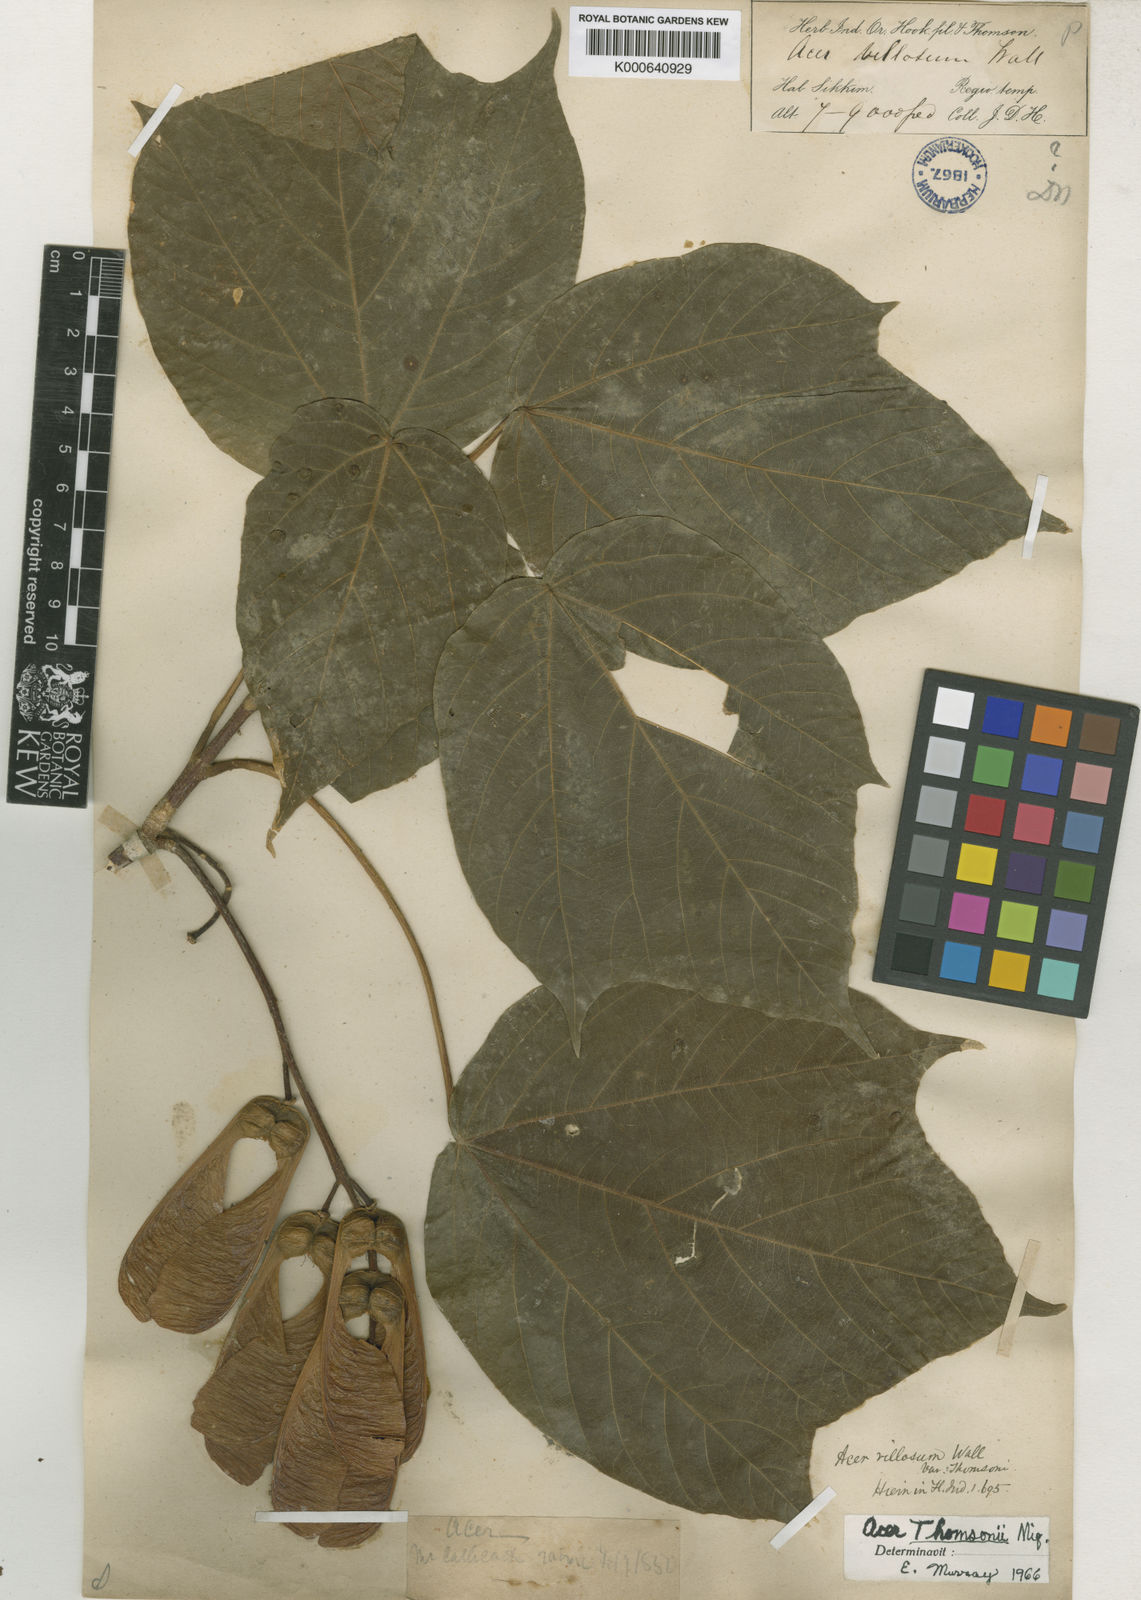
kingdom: Plantae
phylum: Tracheophyta
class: Magnoliopsida
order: Sapindales
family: Sapindaceae
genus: Acer
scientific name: Acer
